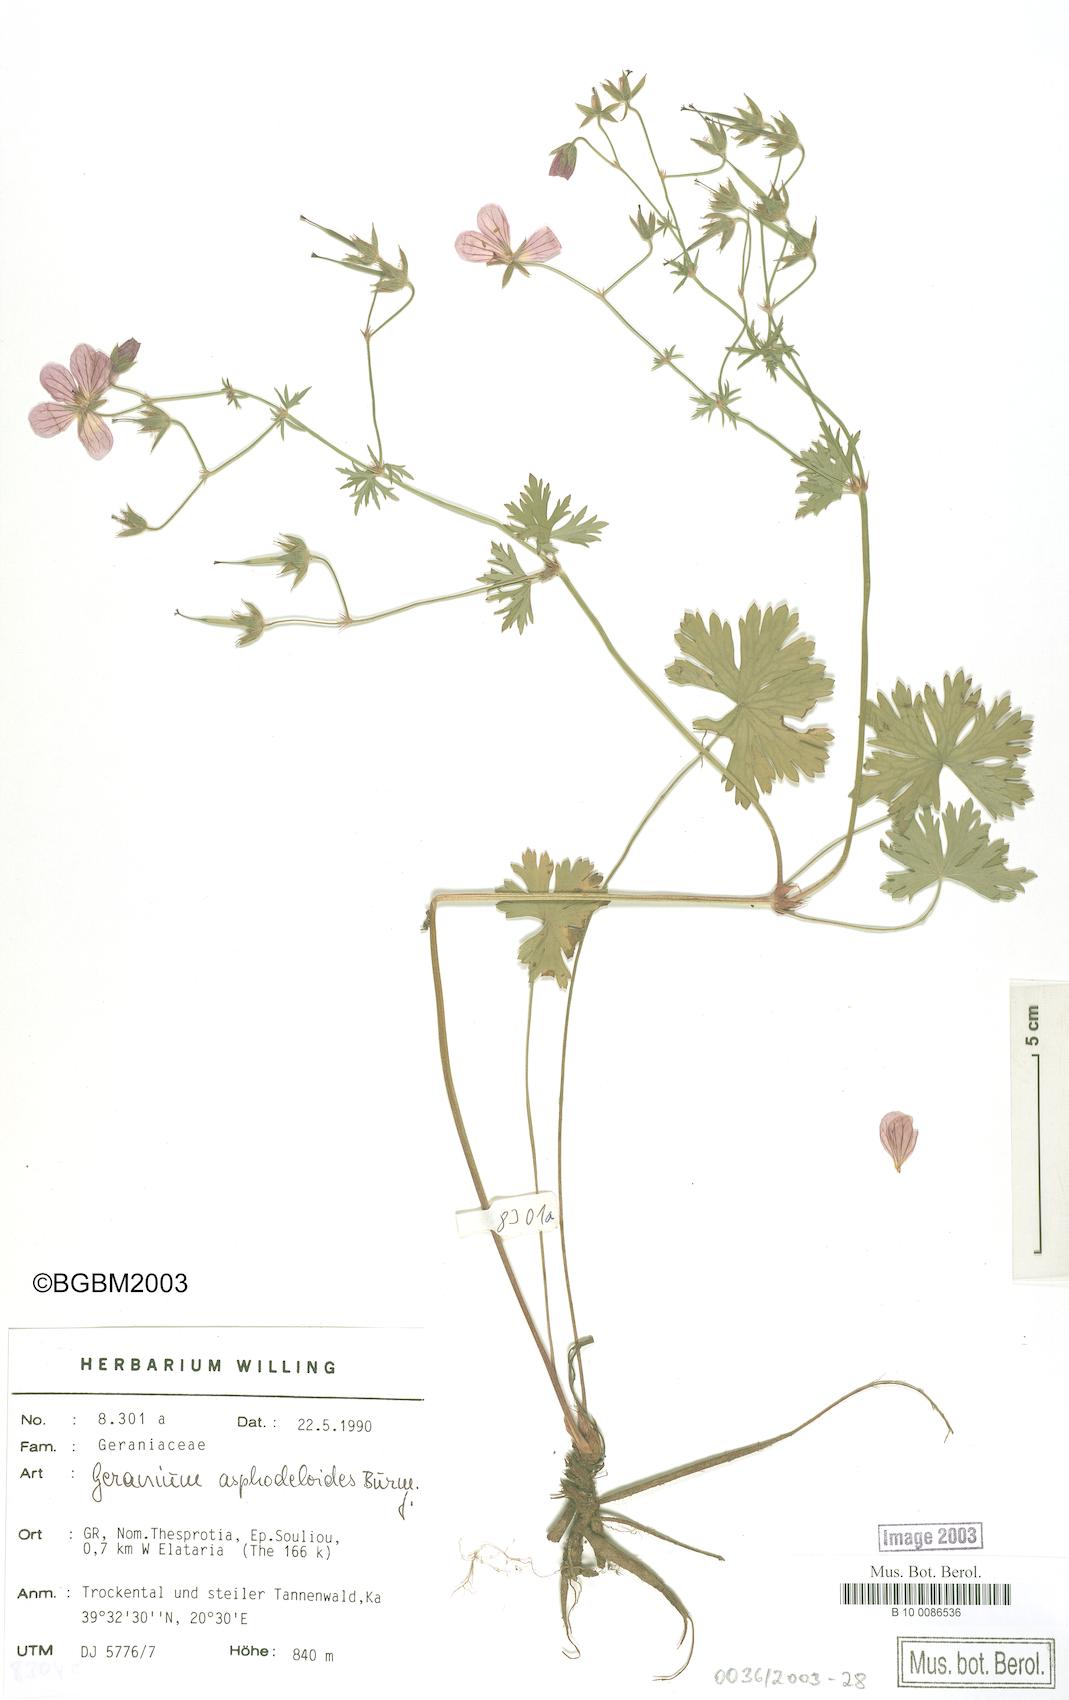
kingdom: Plantae
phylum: Tracheophyta
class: Magnoliopsida
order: Geraniales
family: Geraniaceae
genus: Geranium
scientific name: Geranium asphodeloides
